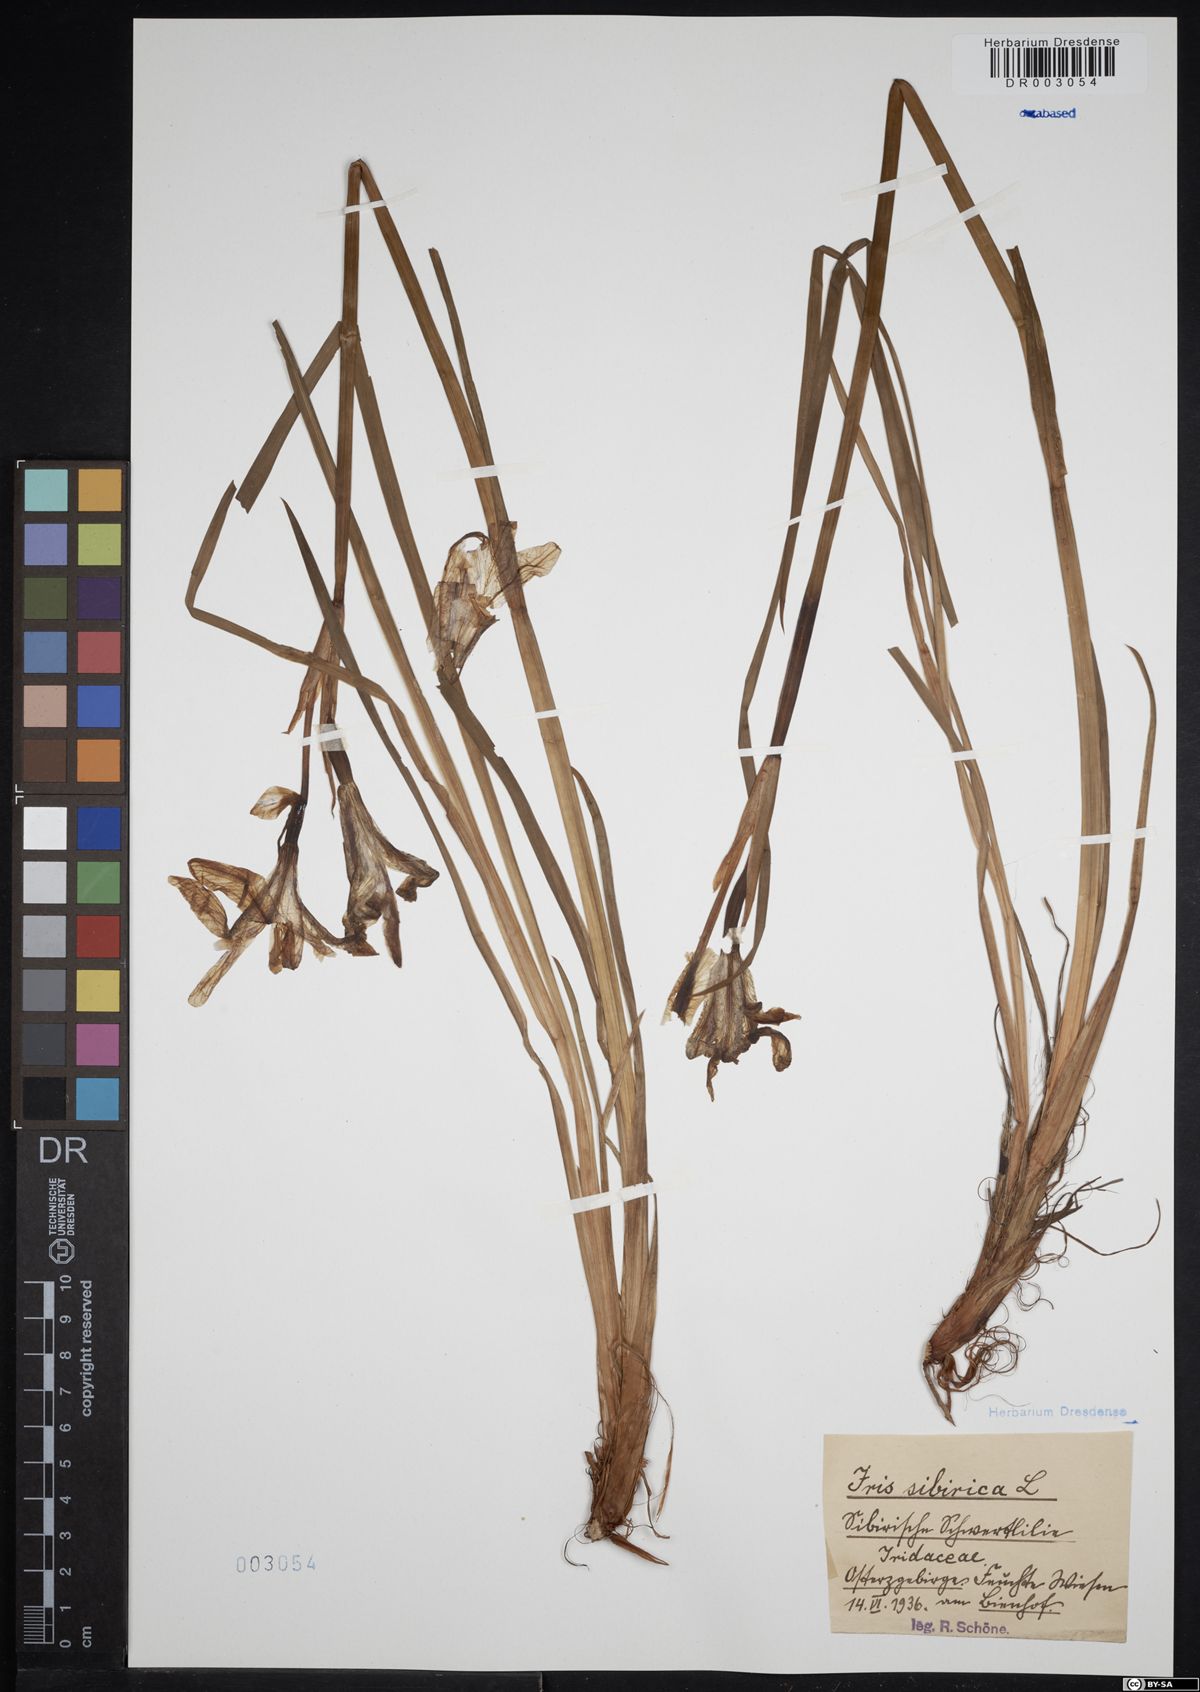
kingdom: Plantae
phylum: Tracheophyta
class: Liliopsida
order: Asparagales
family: Iridaceae
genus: Iris
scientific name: Iris sibirica
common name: Siberian iris
